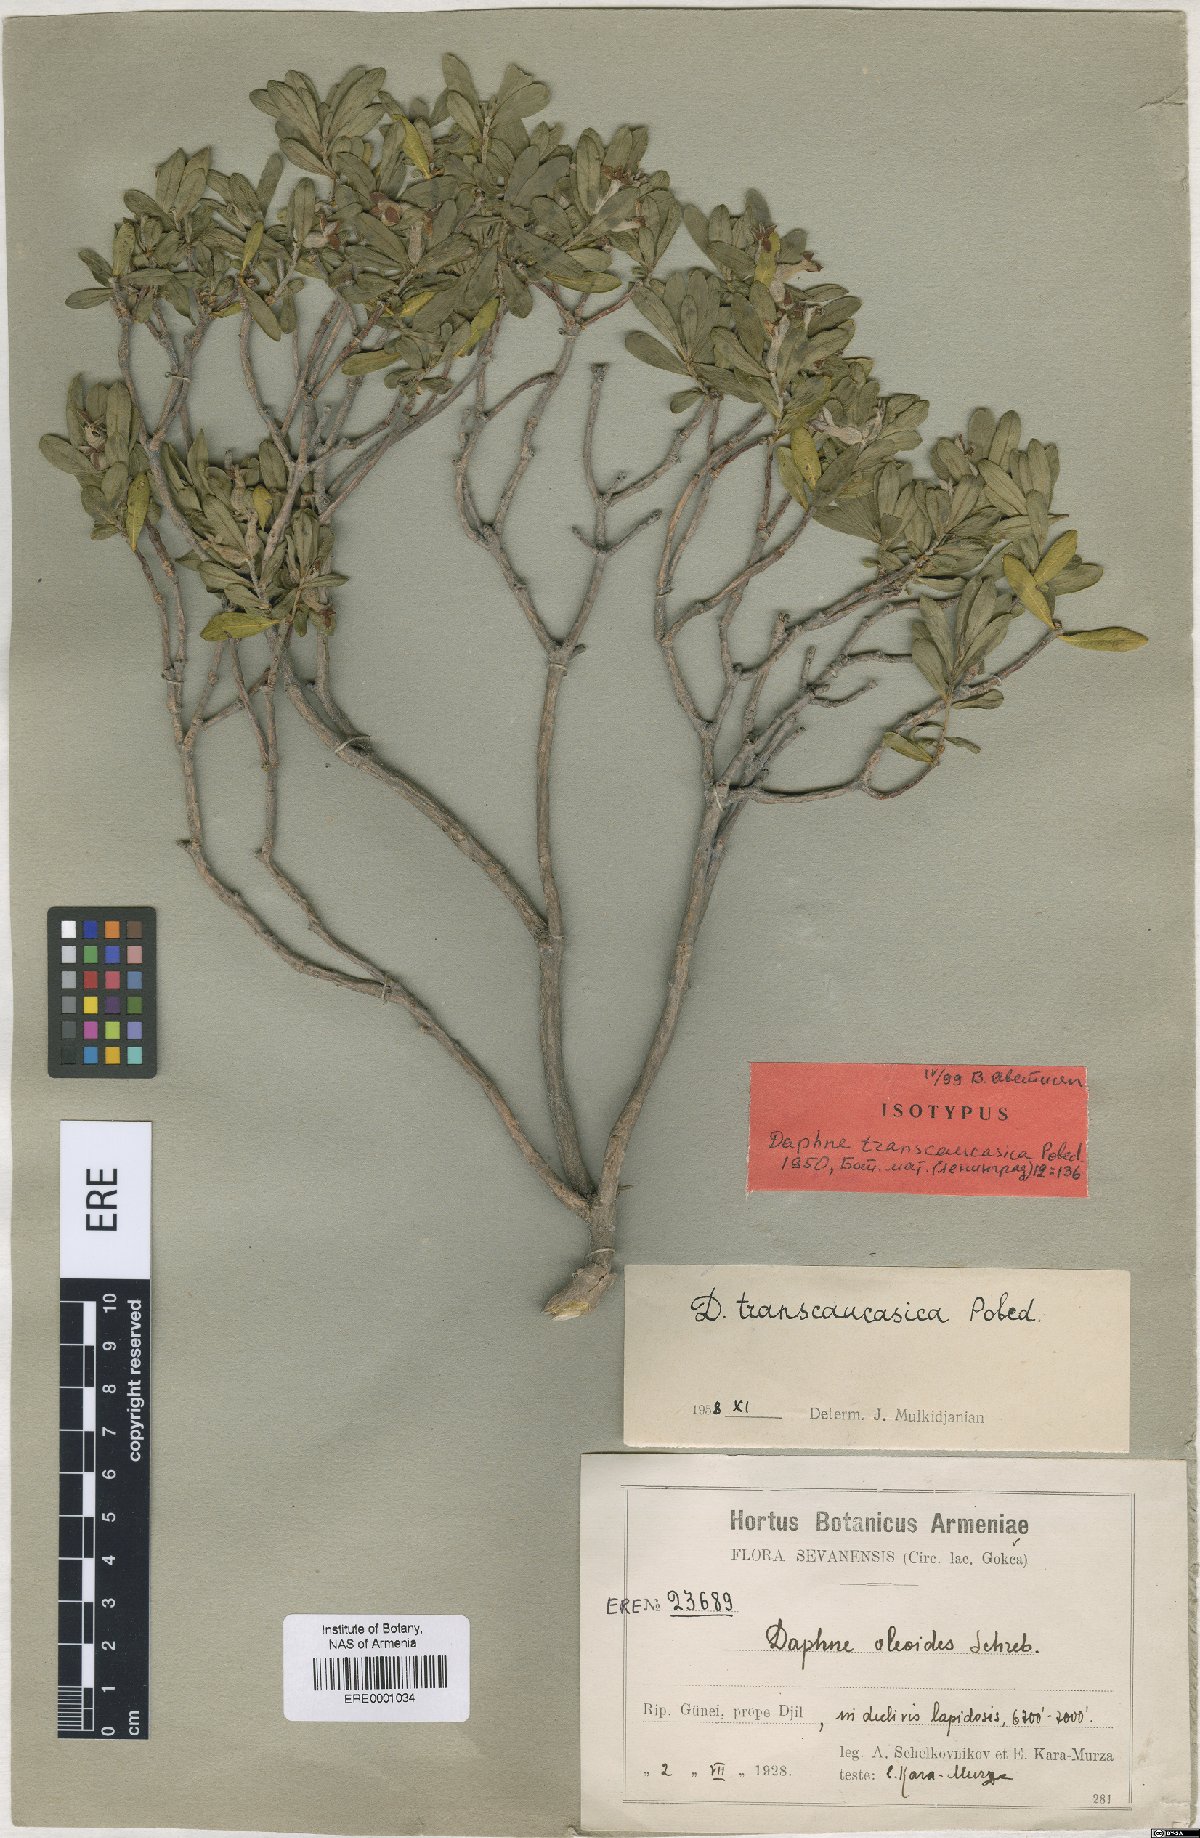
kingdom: Plantae
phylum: Tracheophyta
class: Magnoliopsida
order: Malvales
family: Thymelaeaceae
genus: Daphne
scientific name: Daphne kurdica
